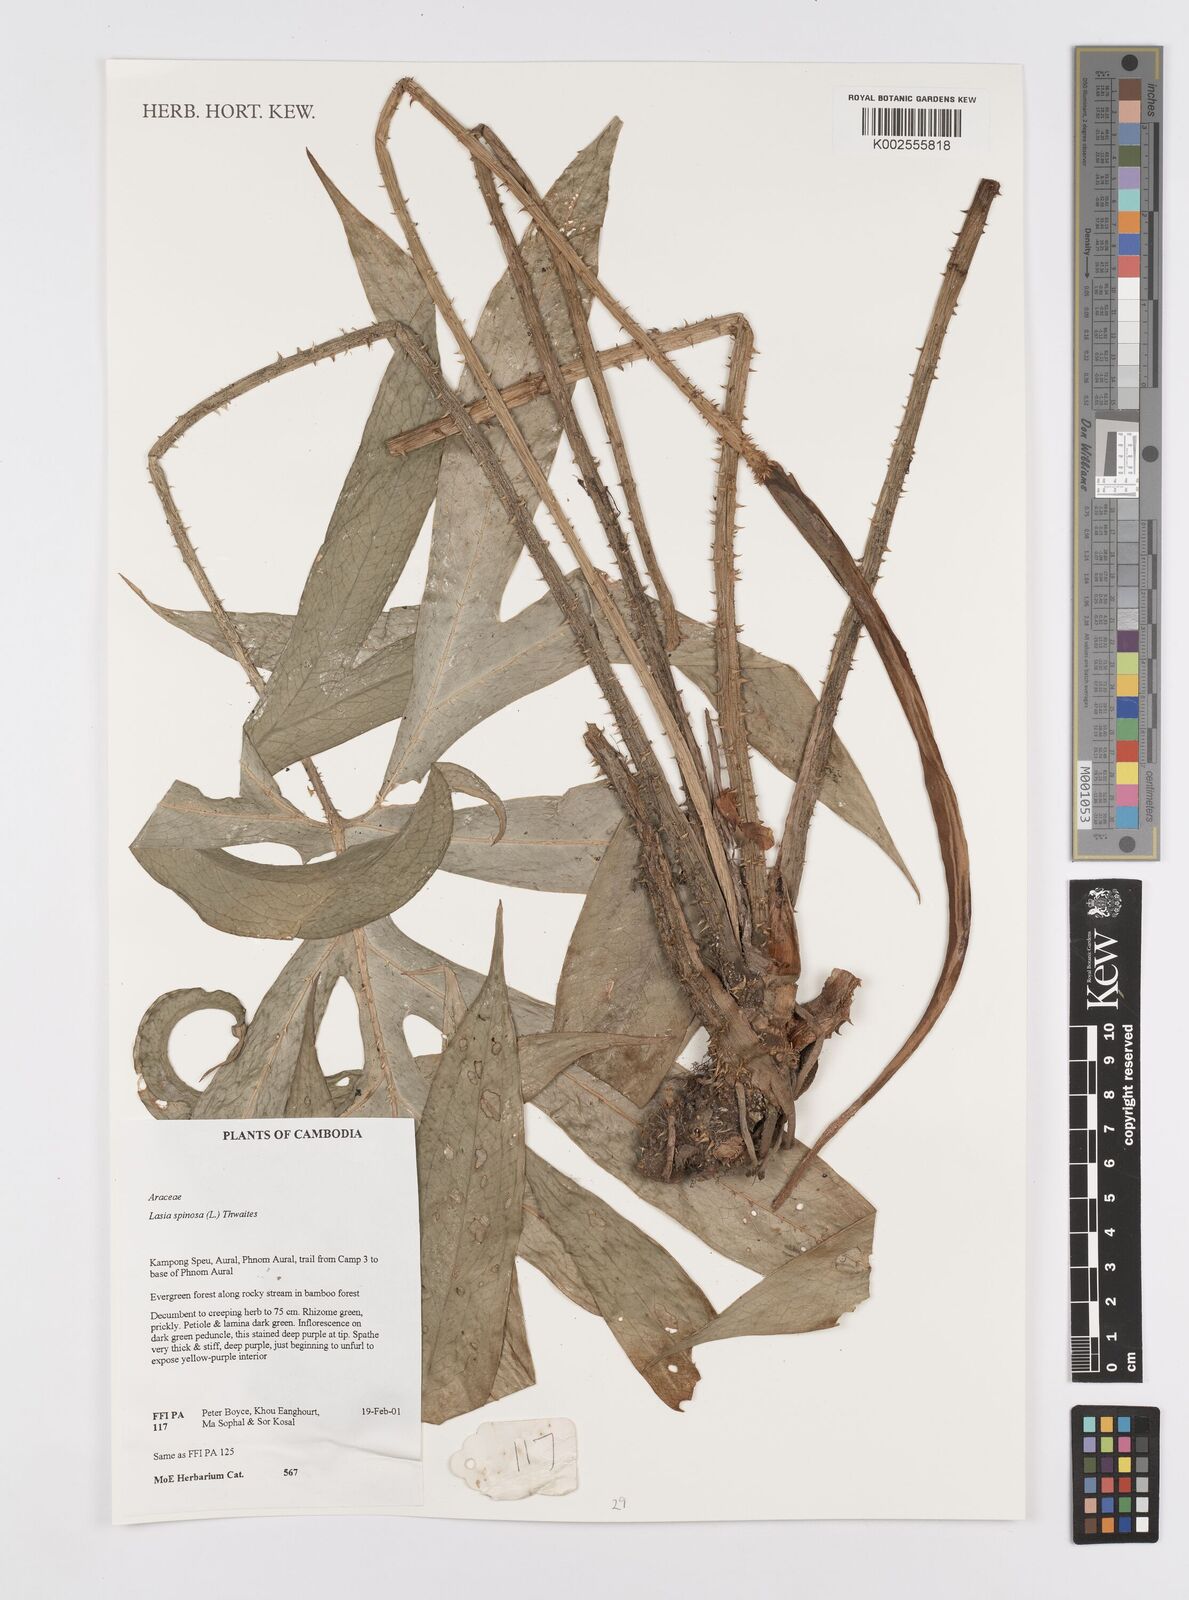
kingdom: Plantae
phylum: Tracheophyta
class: Liliopsida
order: Alismatales
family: Araceae
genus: Lasia
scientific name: Lasia spinosa
